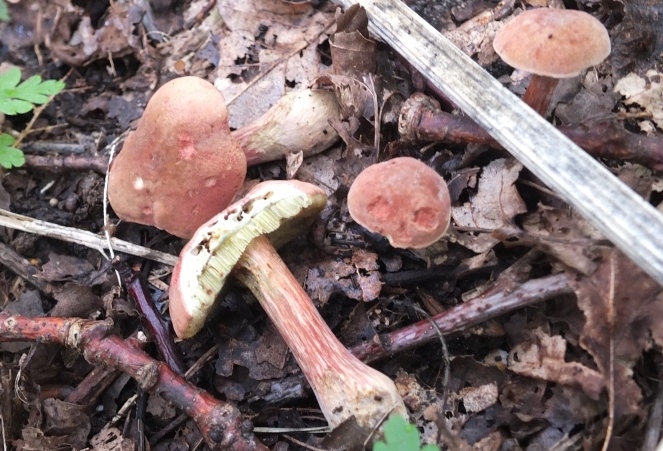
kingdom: Fungi
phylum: Basidiomycota
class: Agaricomycetes
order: Boletales
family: Boletaceae
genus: Hortiboletus
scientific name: Hortiboletus rubellus
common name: blodrød rørhat
